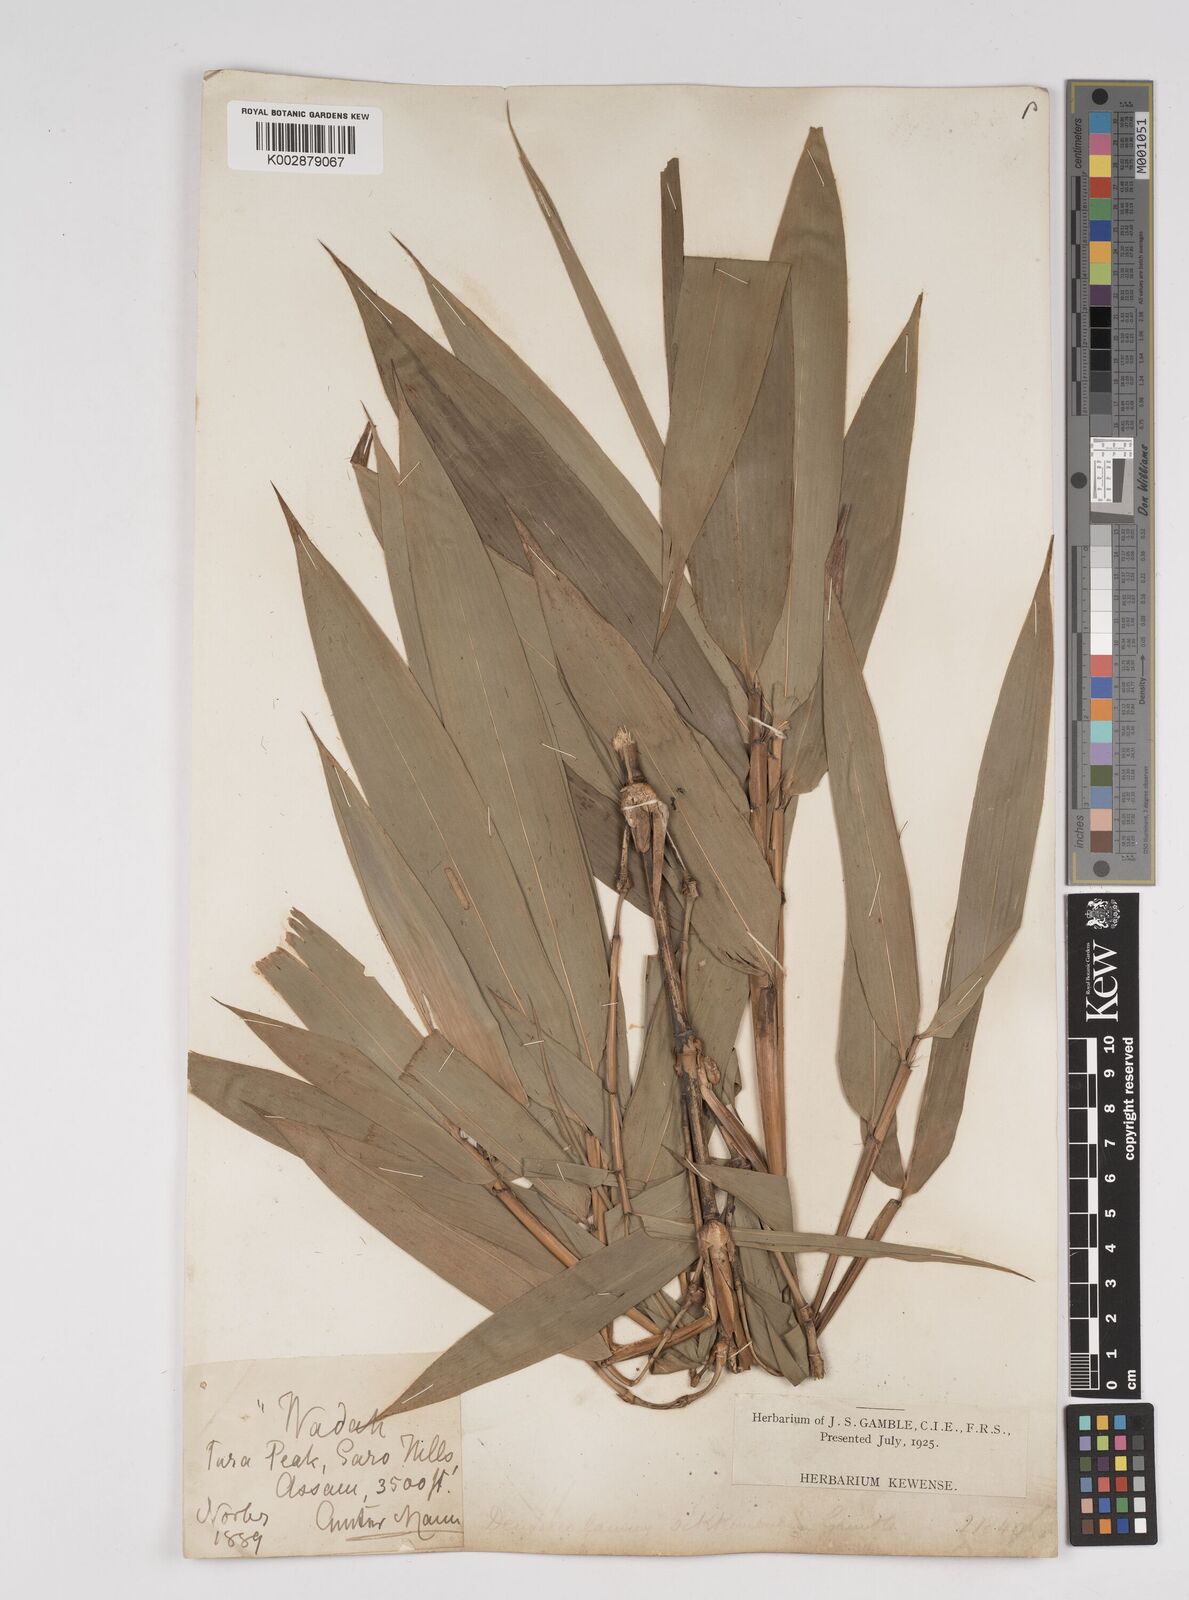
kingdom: Plantae
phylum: Tracheophyta
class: Liliopsida
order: Poales
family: Poaceae
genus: Dendrocalamus
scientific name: Dendrocalamus sikkimensis
